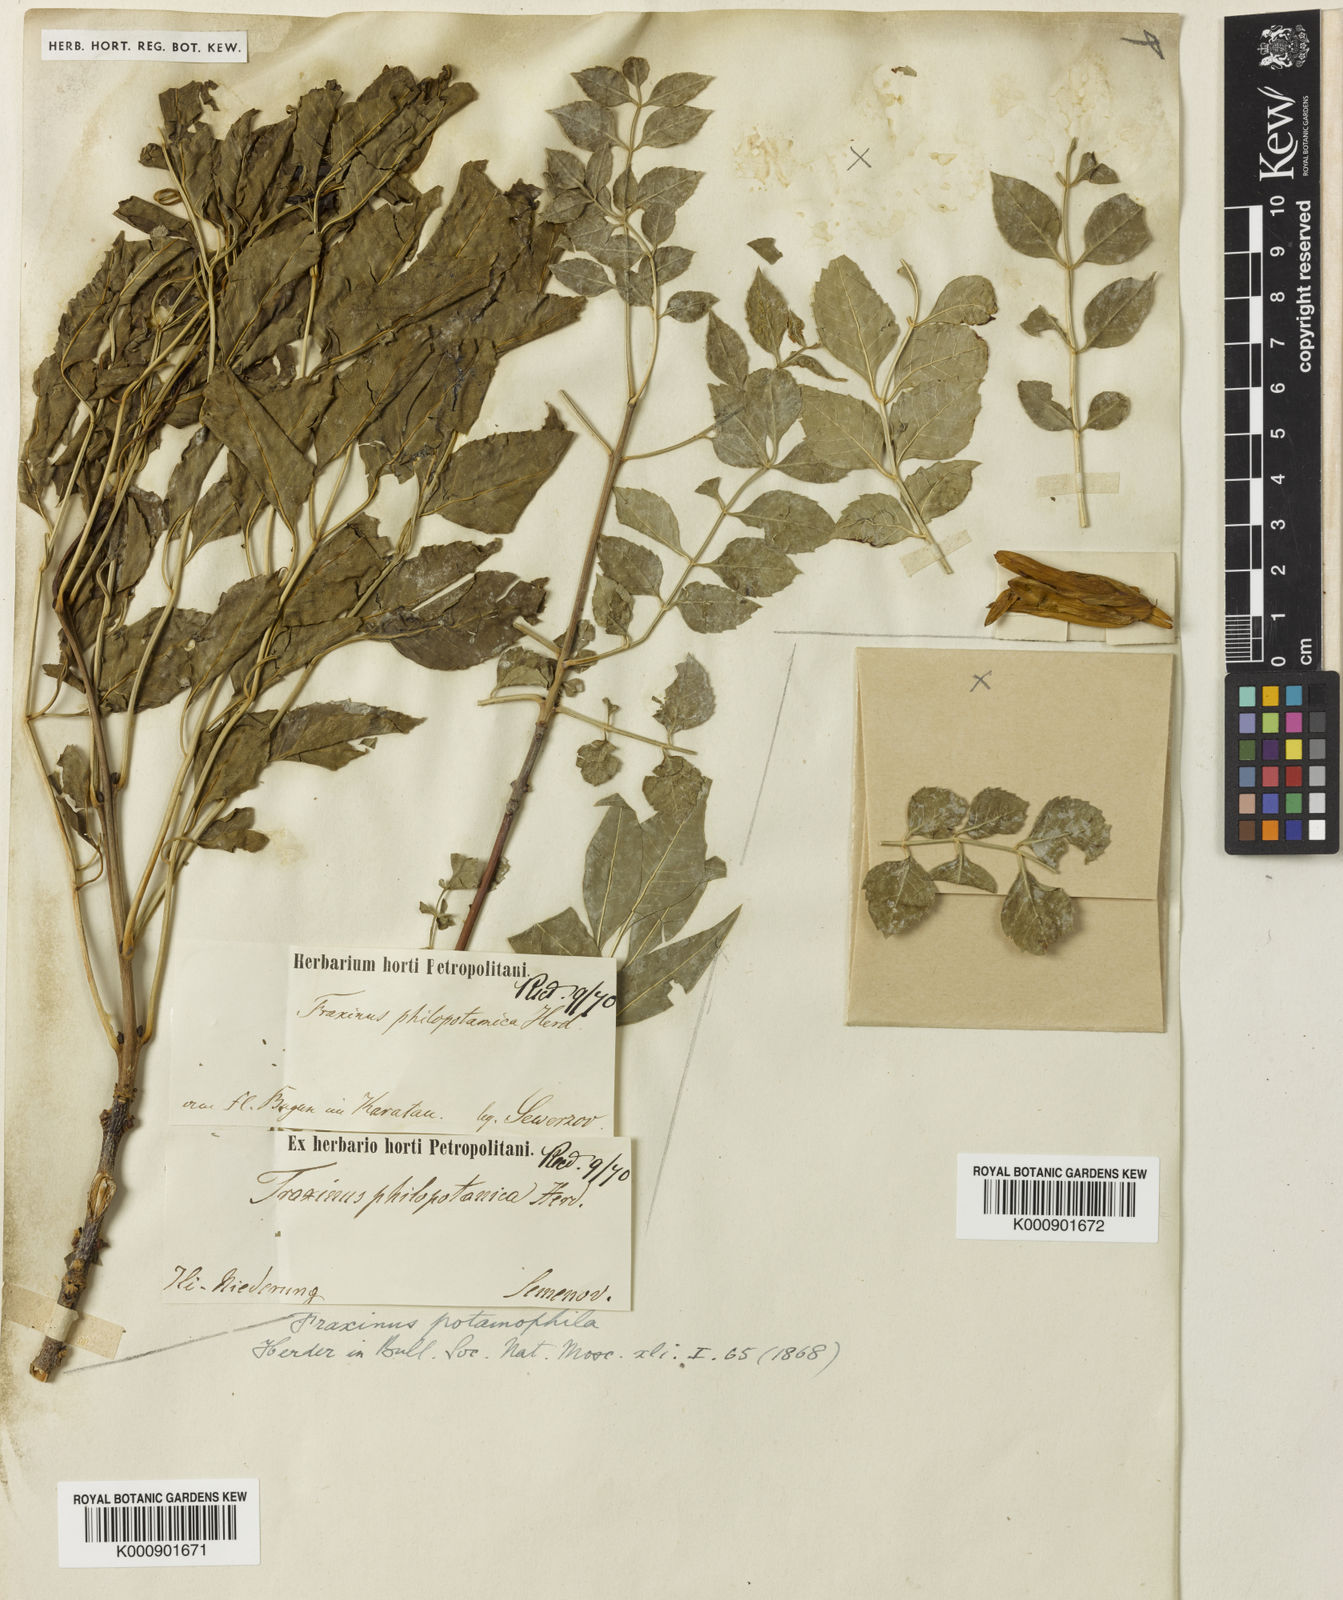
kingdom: Plantae
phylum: Tracheophyta
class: Magnoliopsida
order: Lamiales
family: Oleaceae
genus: Fraxinus
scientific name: Fraxinus angustifolia
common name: Narrow-leafed ash
